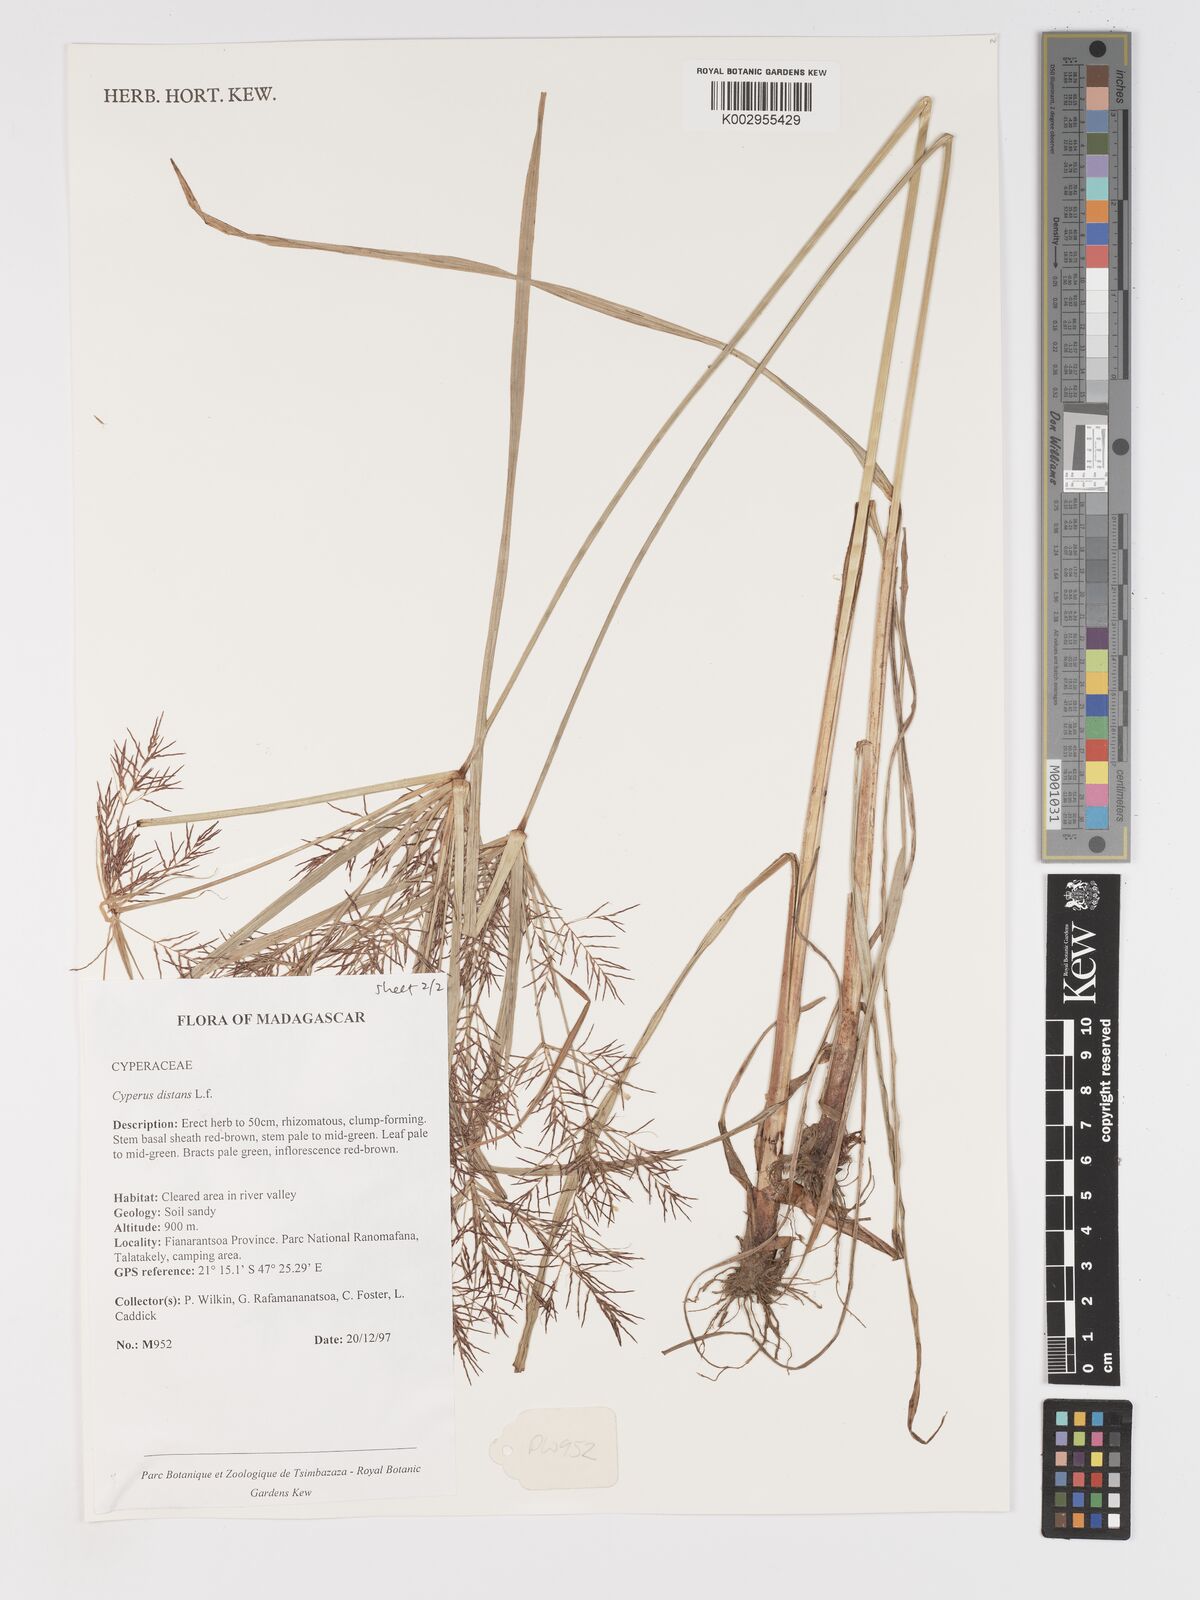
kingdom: Plantae
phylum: Tracheophyta
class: Liliopsida
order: Poales
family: Cyperaceae
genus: Cyperus
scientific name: Cyperus distans
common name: Slender cyperus
